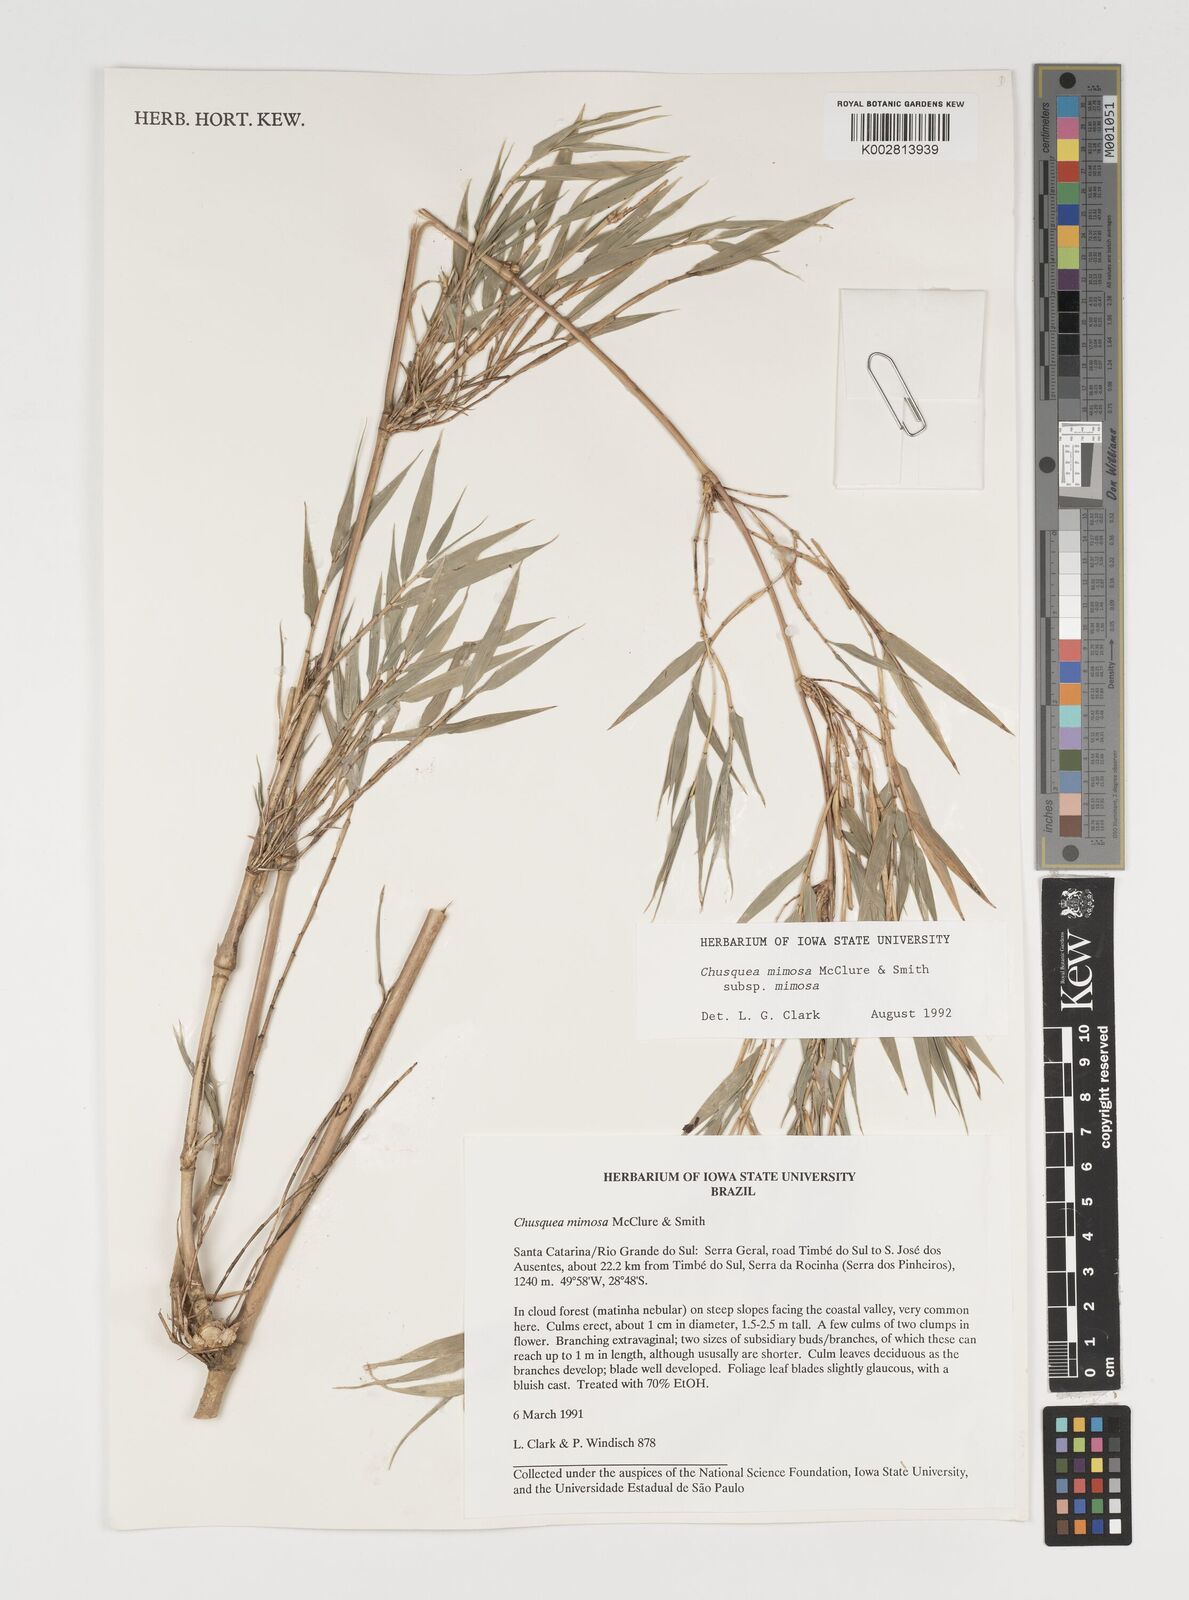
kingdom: Plantae
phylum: Tracheophyta
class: Liliopsida
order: Poales
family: Poaceae
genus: Chusquea
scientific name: Chusquea mimosa
